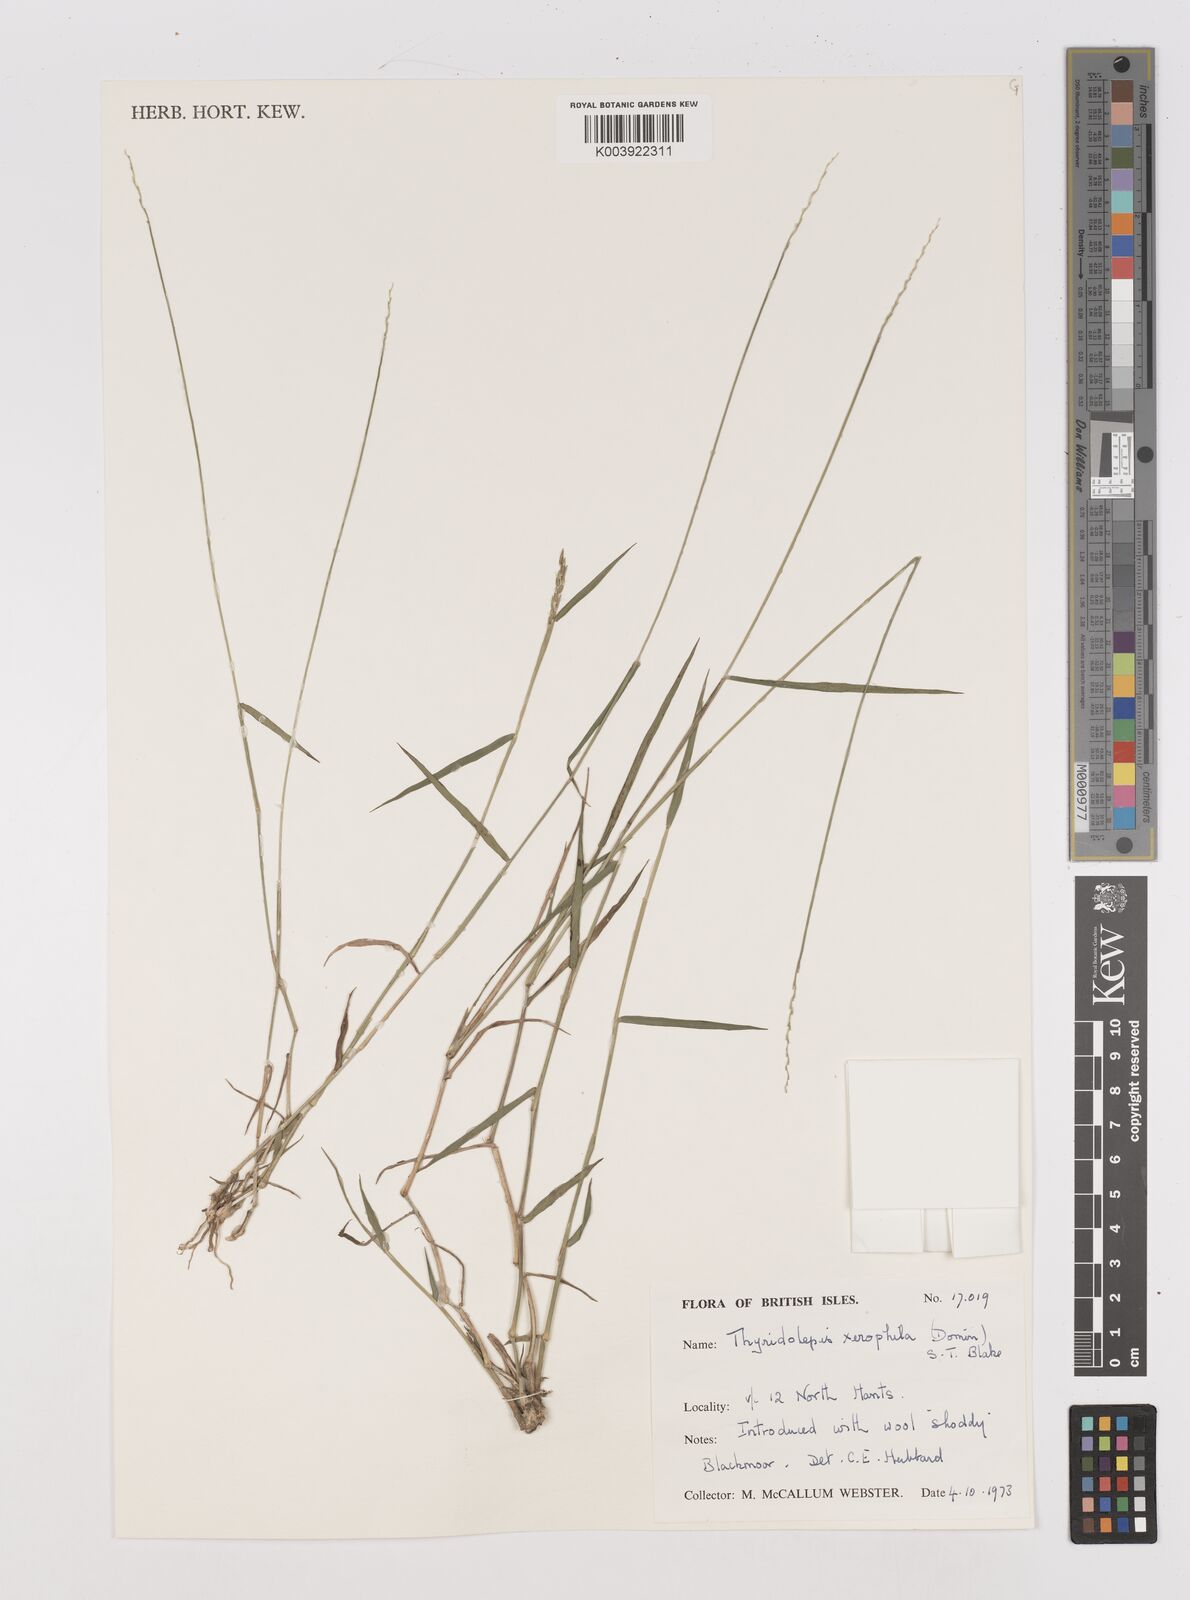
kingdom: Plantae
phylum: Tracheophyta
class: Liliopsida
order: Poales
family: Poaceae
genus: Thyridolepis
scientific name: Thyridolepis xerophila
